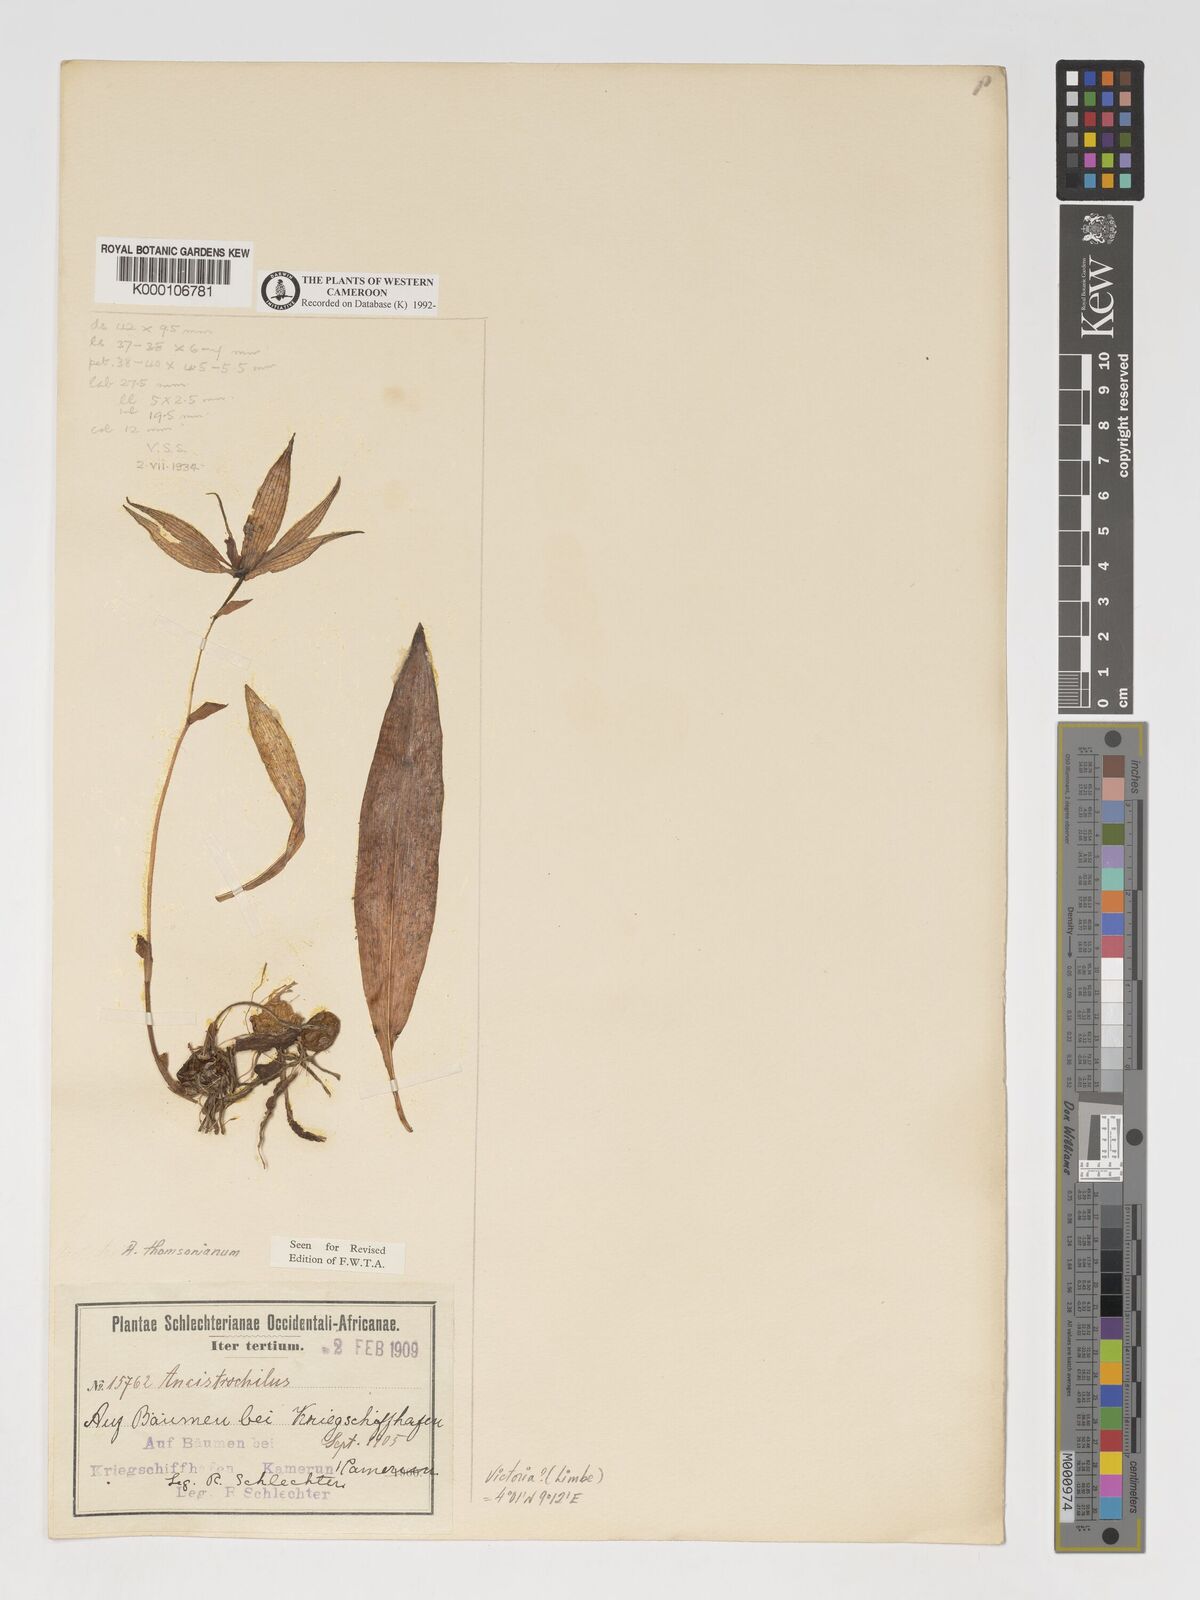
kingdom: Plantae
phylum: Tracheophyta
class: Liliopsida
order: Asparagales
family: Orchidaceae
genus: Ancistrochilus
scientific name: Ancistrochilus thomsonianus
